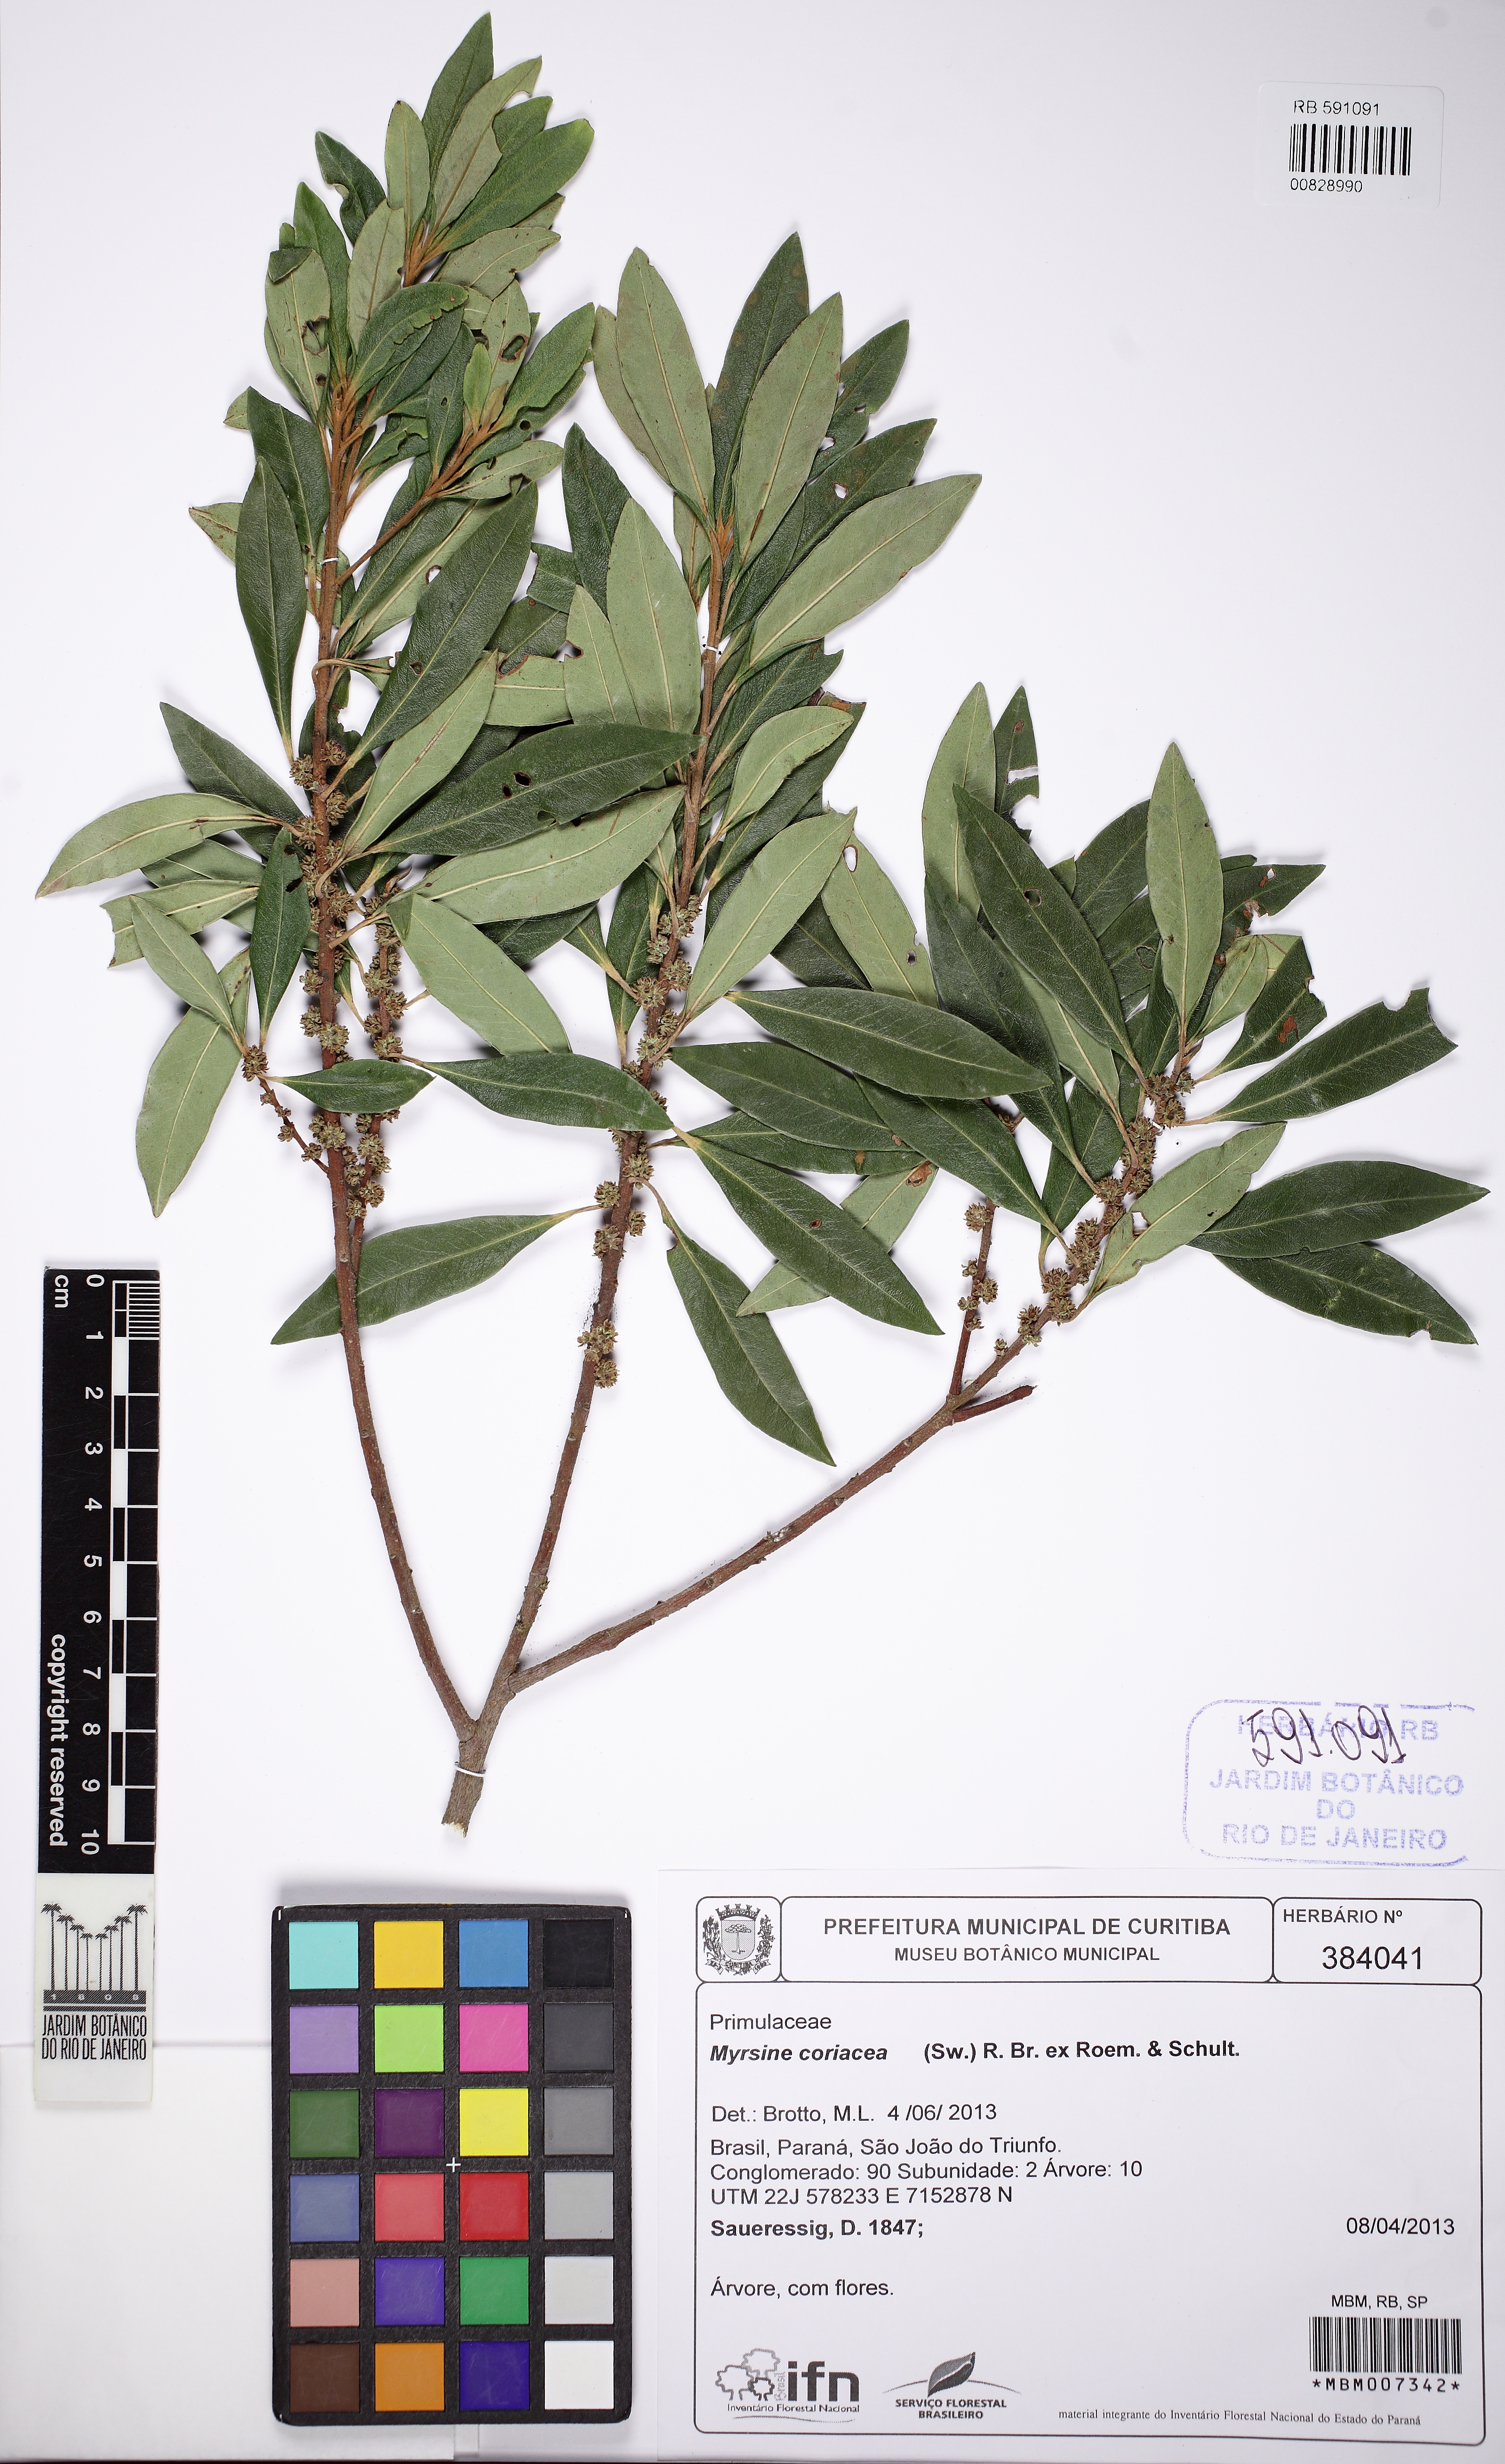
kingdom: Plantae
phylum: Tracheophyta
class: Magnoliopsida
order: Ericales
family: Primulaceae
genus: Myrsine
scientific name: Myrsine coriacea
